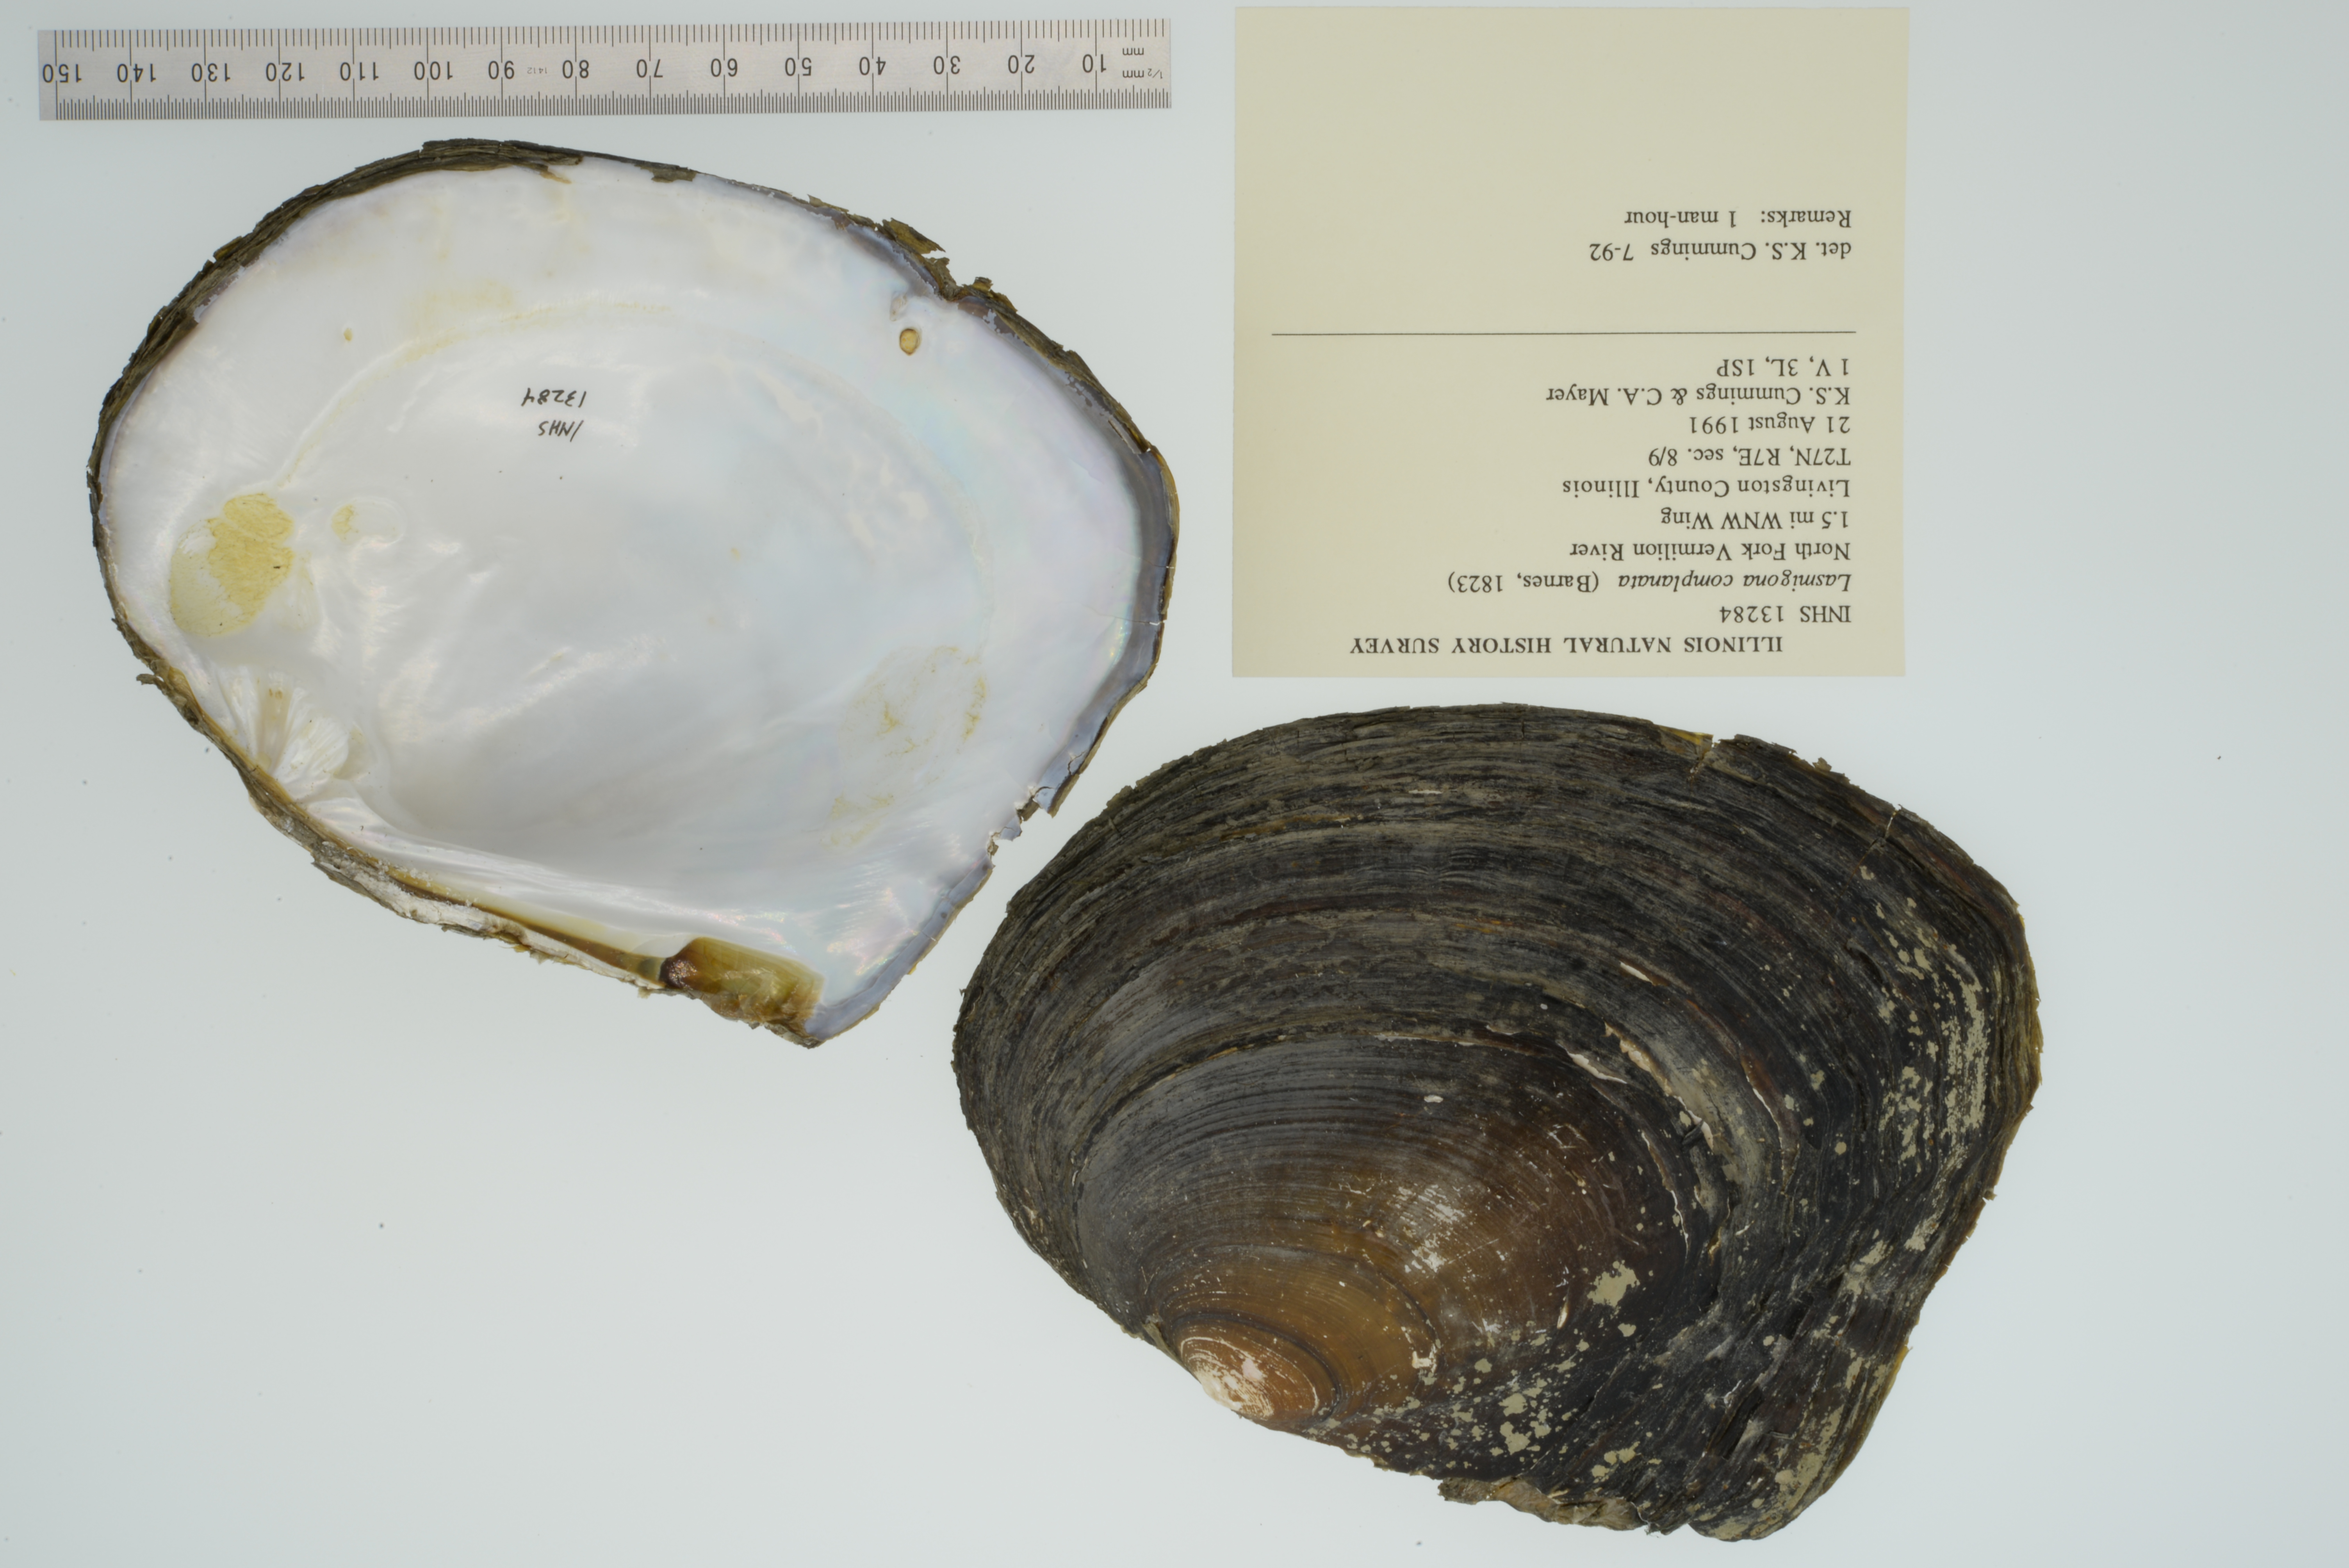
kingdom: Animalia
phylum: Mollusca
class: Bivalvia
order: Unionida
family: Unionidae
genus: Lasmigona
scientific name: Lasmigona complanata
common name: White heelsplitter
